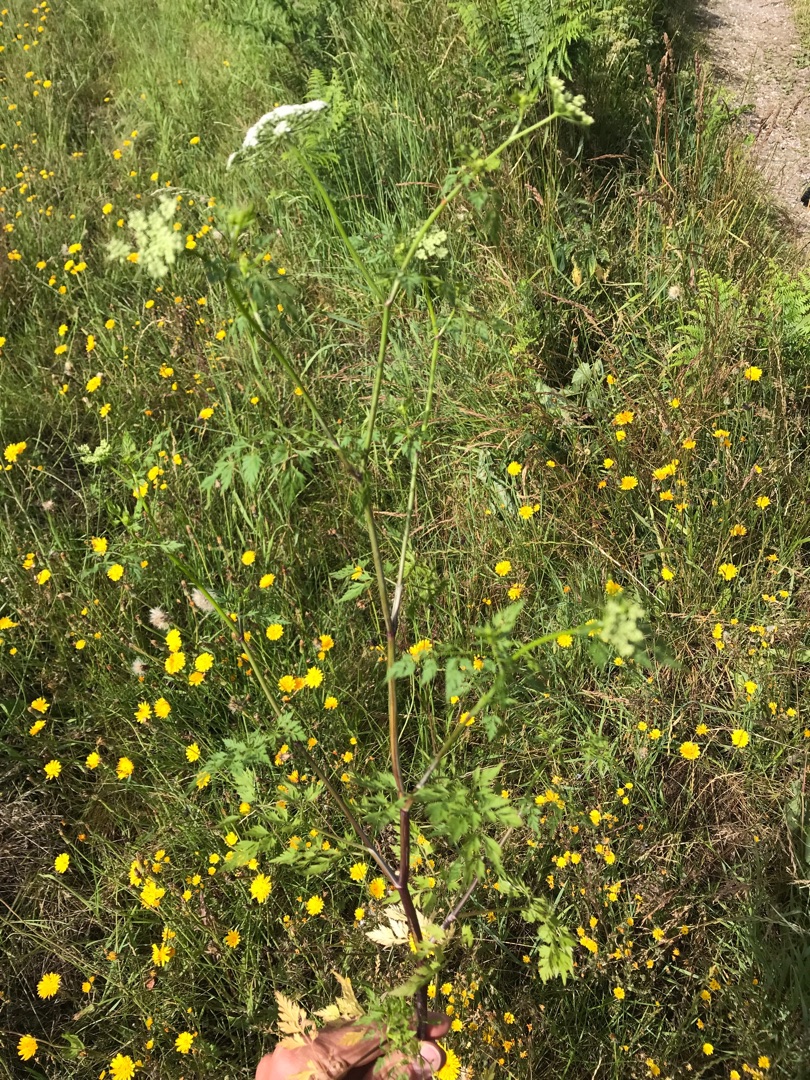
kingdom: Plantae
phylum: Tracheophyta
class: Magnoliopsida
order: Apiales
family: Apiaceae
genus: Aethusa
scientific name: Aethusa cynapium
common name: Hundepersille
